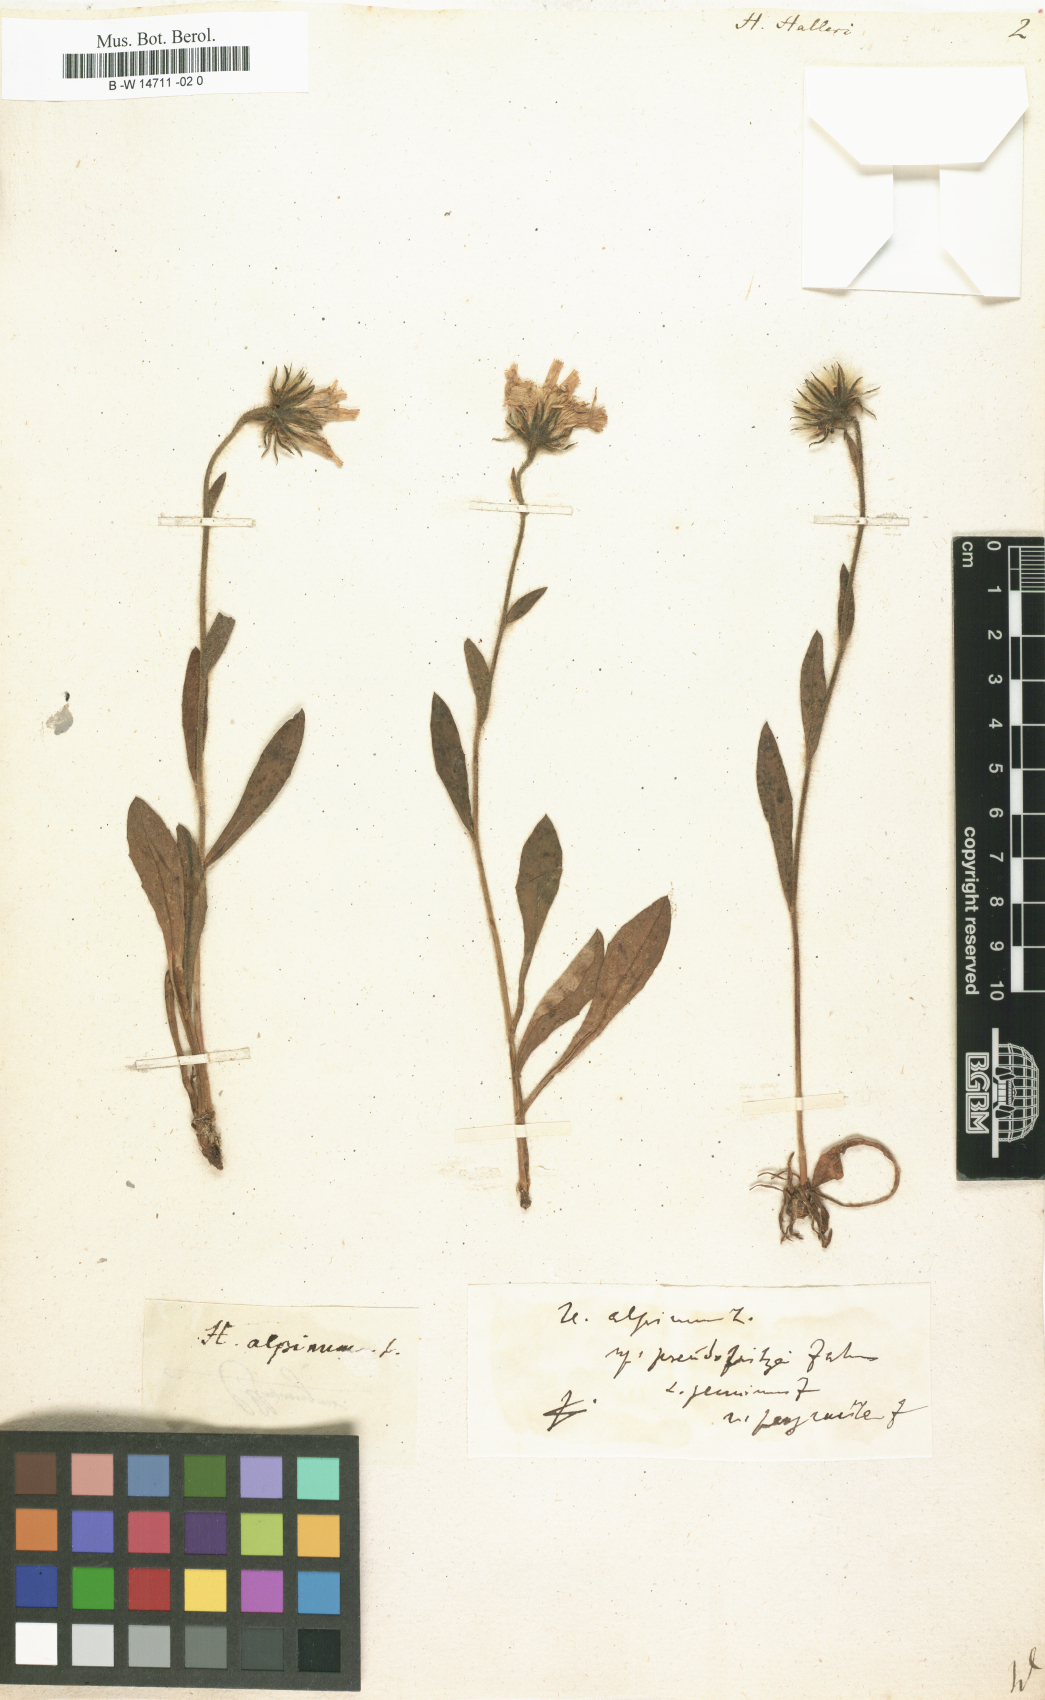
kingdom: Plantae
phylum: Tracheophyta
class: Magnoliopsida
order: Asterales
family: Asteraceae
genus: Hieracium
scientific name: Hieracium halleri
